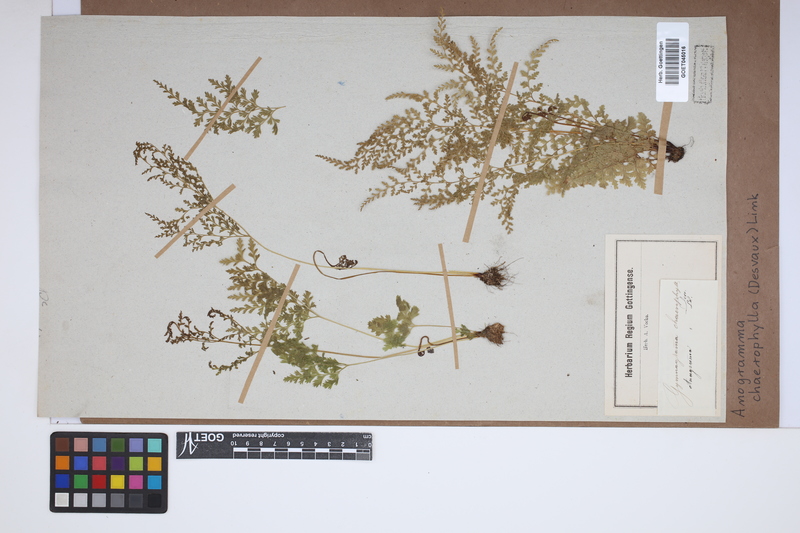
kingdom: Plantae
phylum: Tracheophyta
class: Polypodiopsida
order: Polypodiales
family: Pteridaceae
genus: Gastoniella
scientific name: Gastoniella chaerophylla
